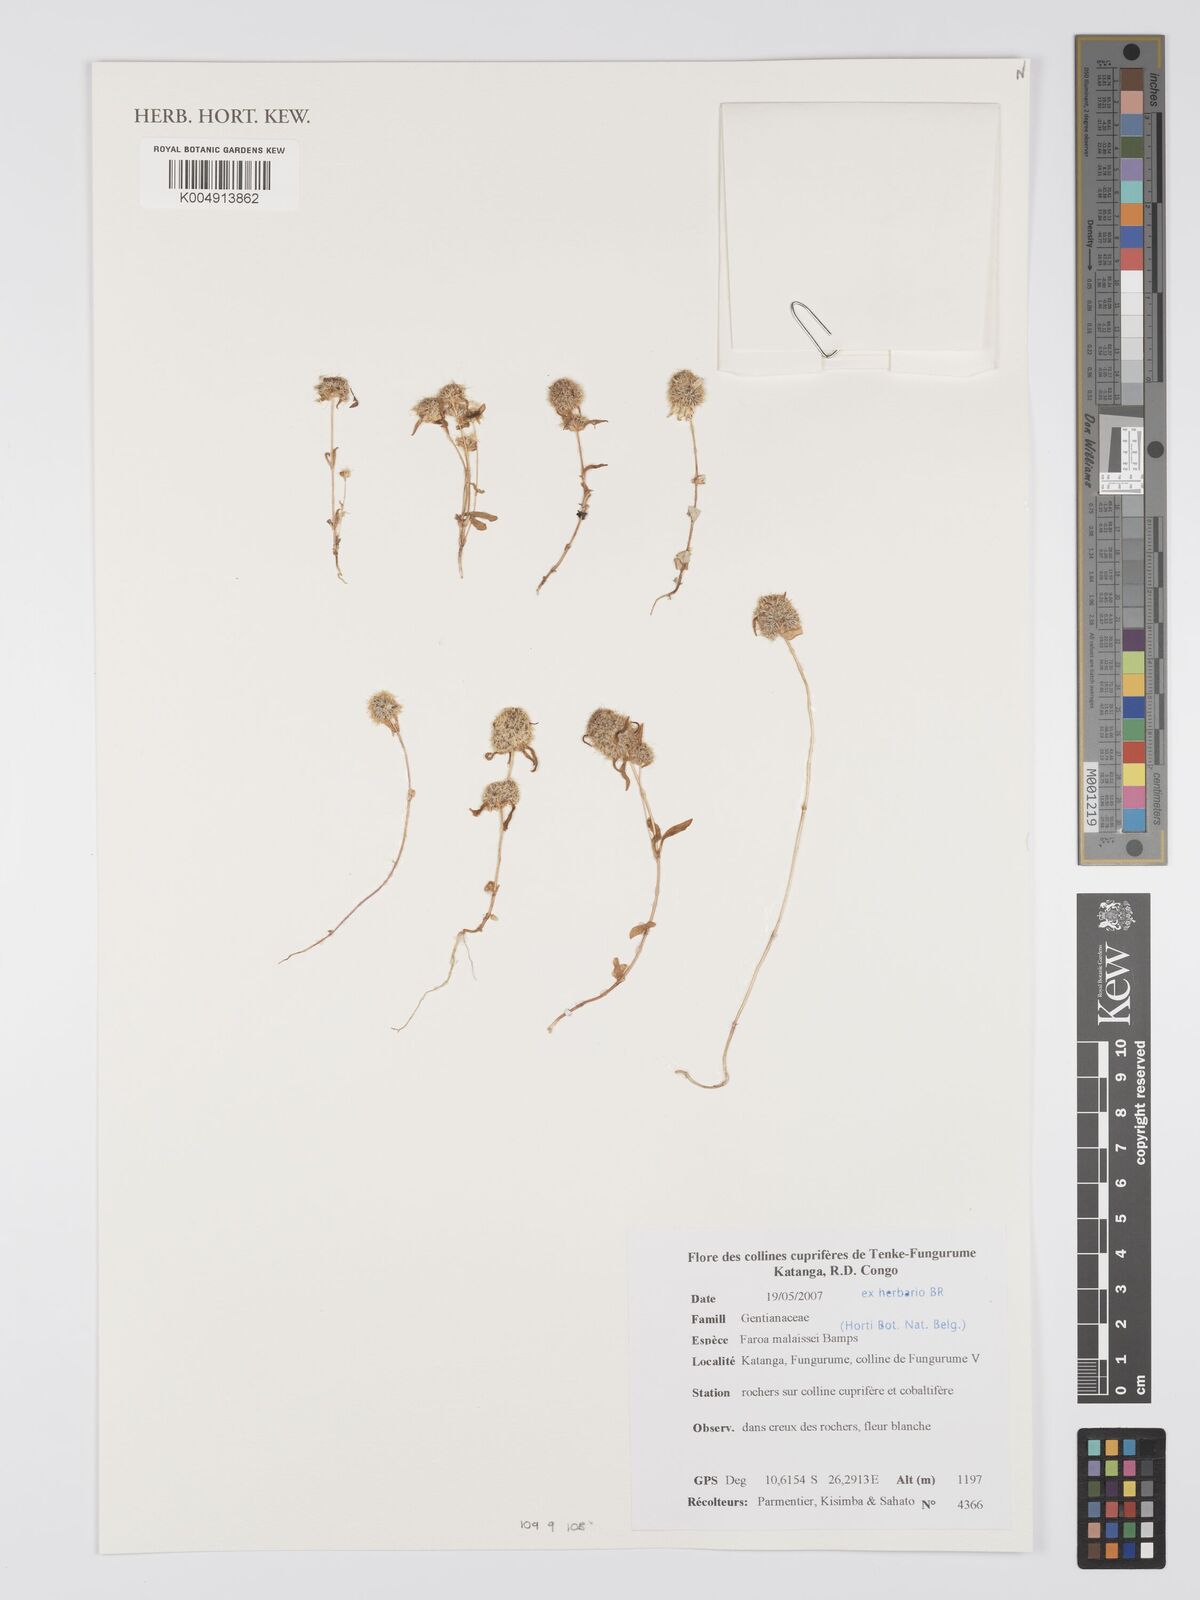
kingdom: Plantae
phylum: Tracheophyta
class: Magnoliopsida
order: Gentianales
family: Gentianaceae
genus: Faroa
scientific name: Faroa malaissei
